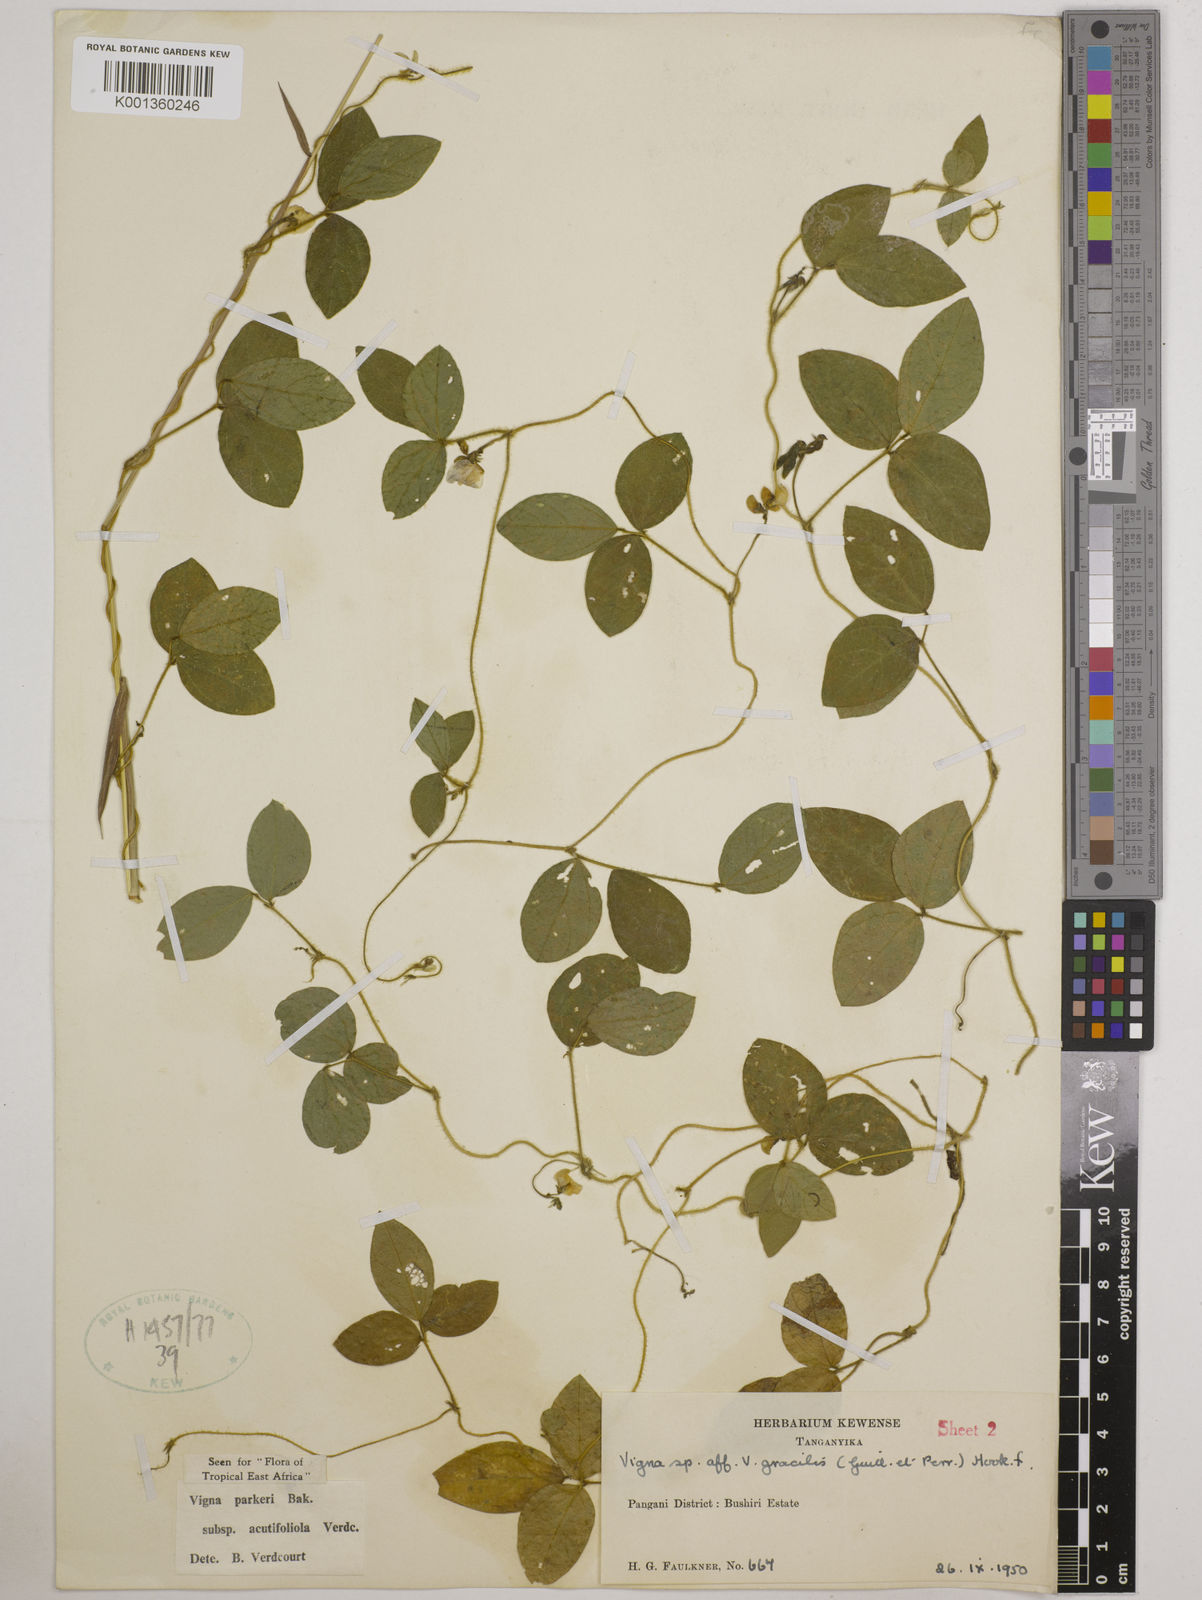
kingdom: Plantae
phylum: Tracheophyta
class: Magnoliopsida
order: Fabales
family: Fabaceae
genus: Vigna
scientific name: Vigna
